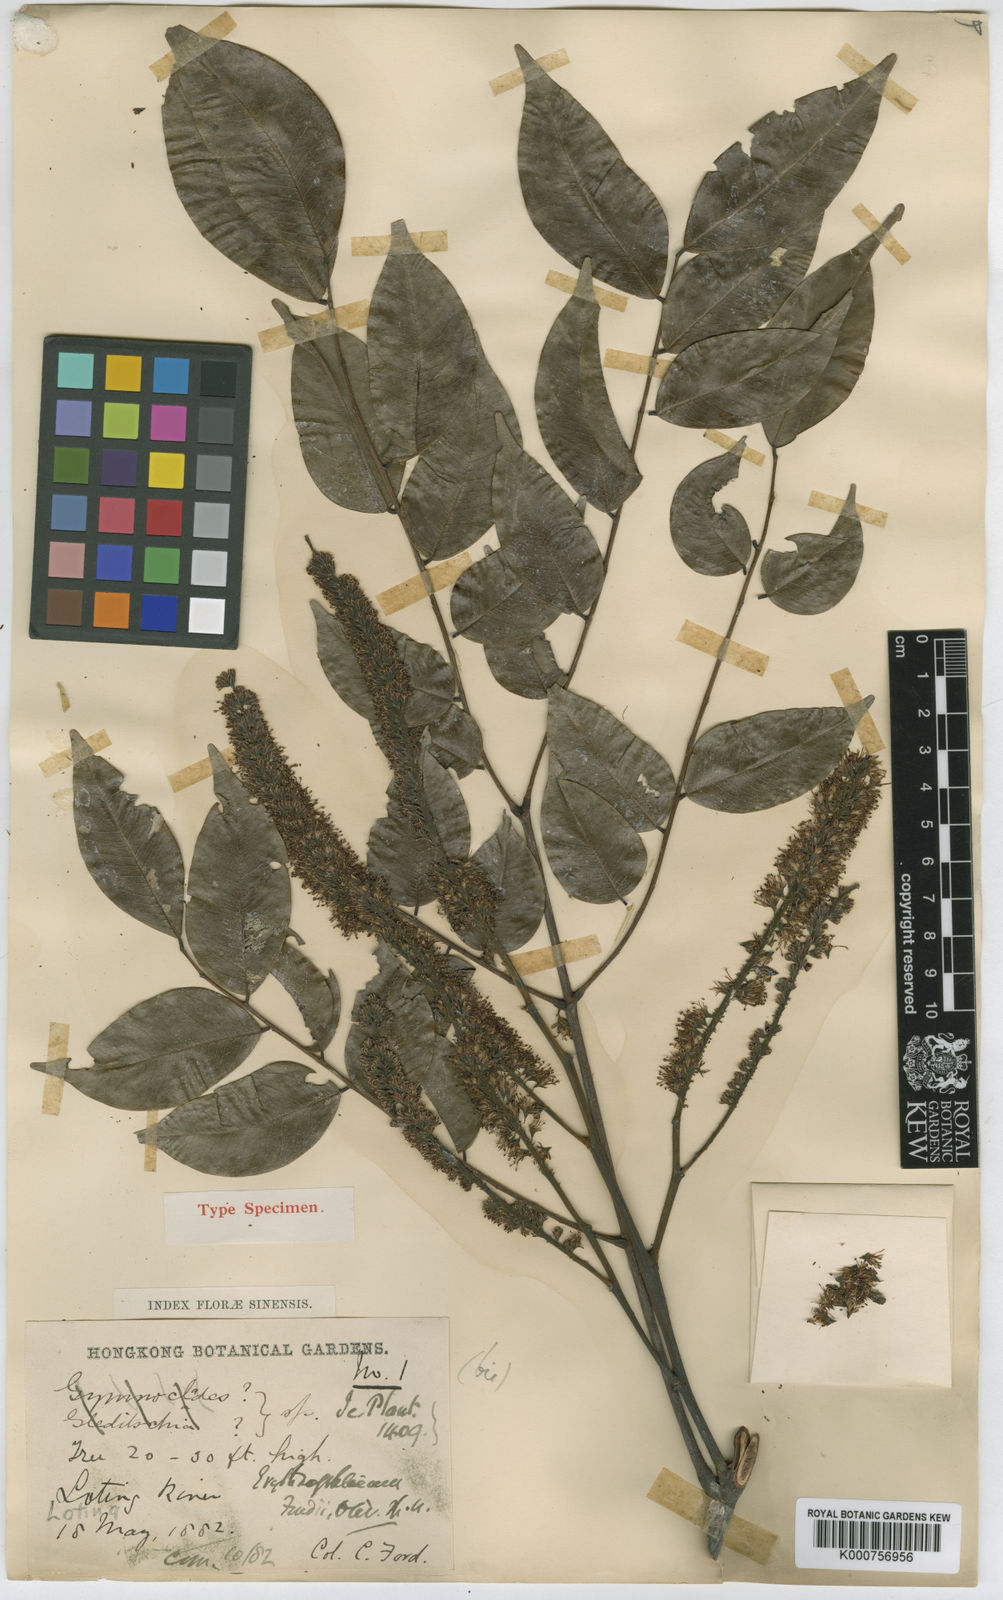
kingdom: Plantae
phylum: Tracheophyta
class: Magnoliopsida
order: Fabales
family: Fabaceae
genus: Erythrophleum
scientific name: Erythrophleum fordii
